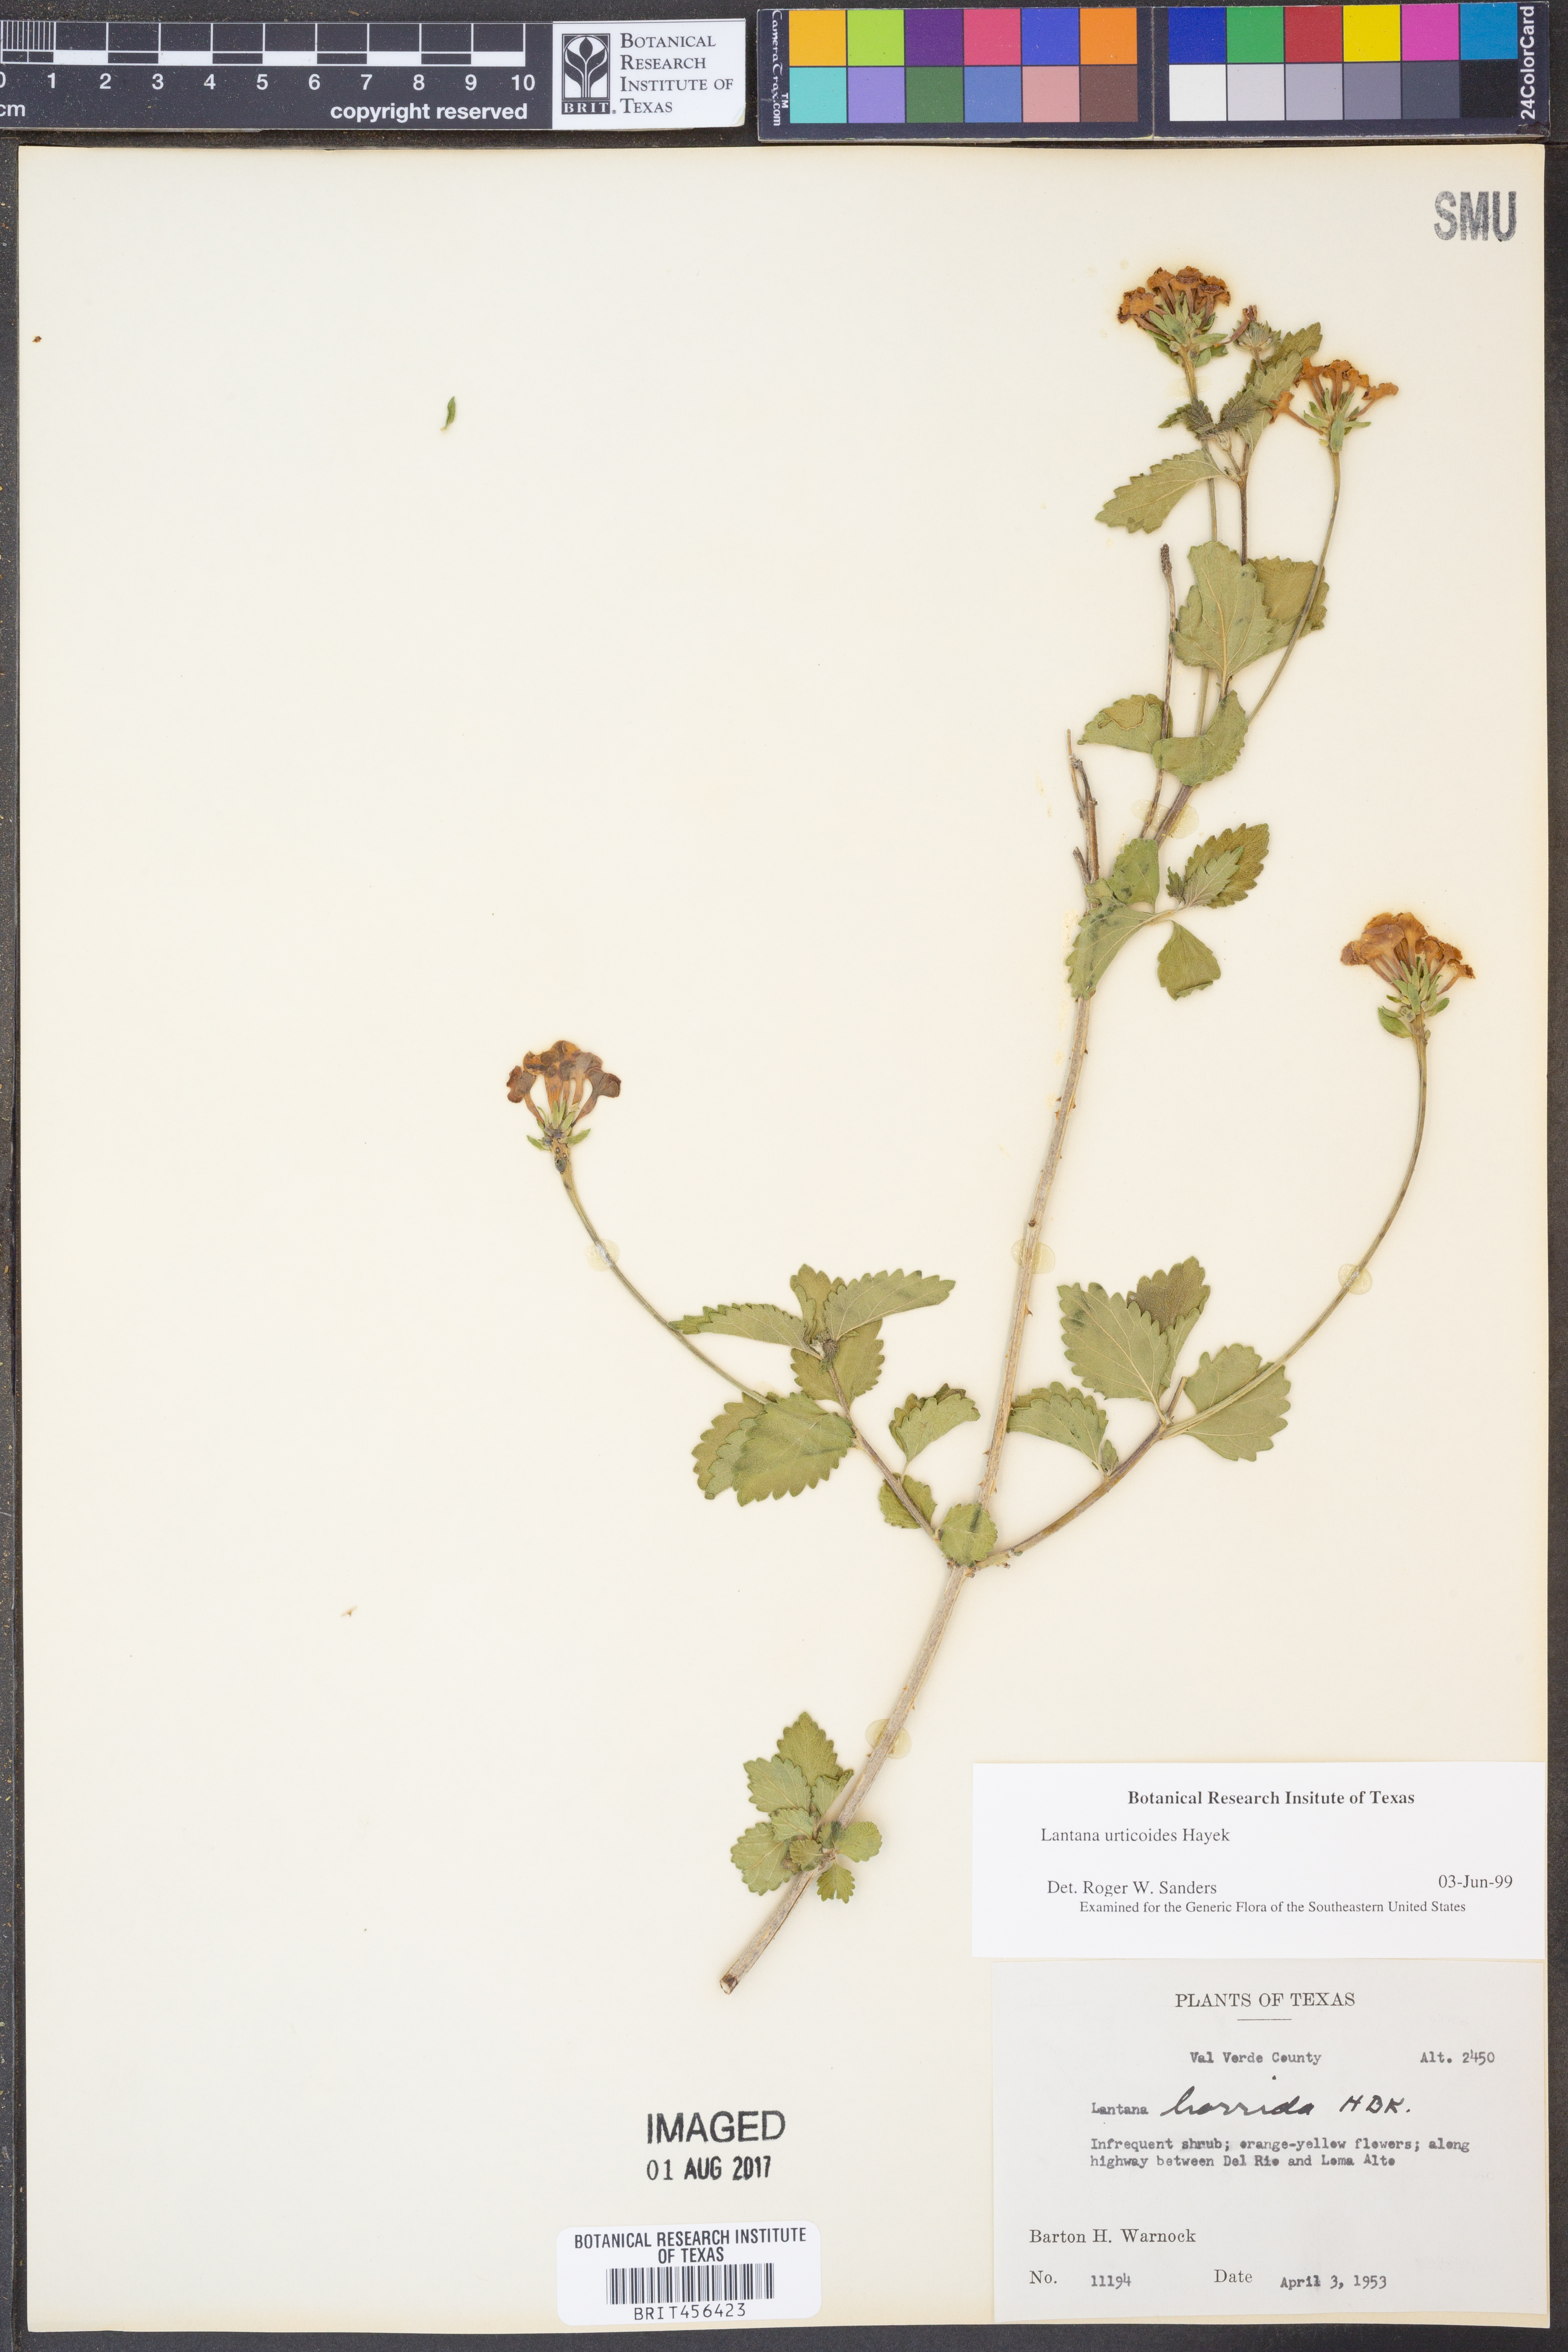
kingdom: Plantae
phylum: Tracheophyta
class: Magnoliopsida
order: Lamiales
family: Verbenaceae
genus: Lantana
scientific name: Lantana urticoides
